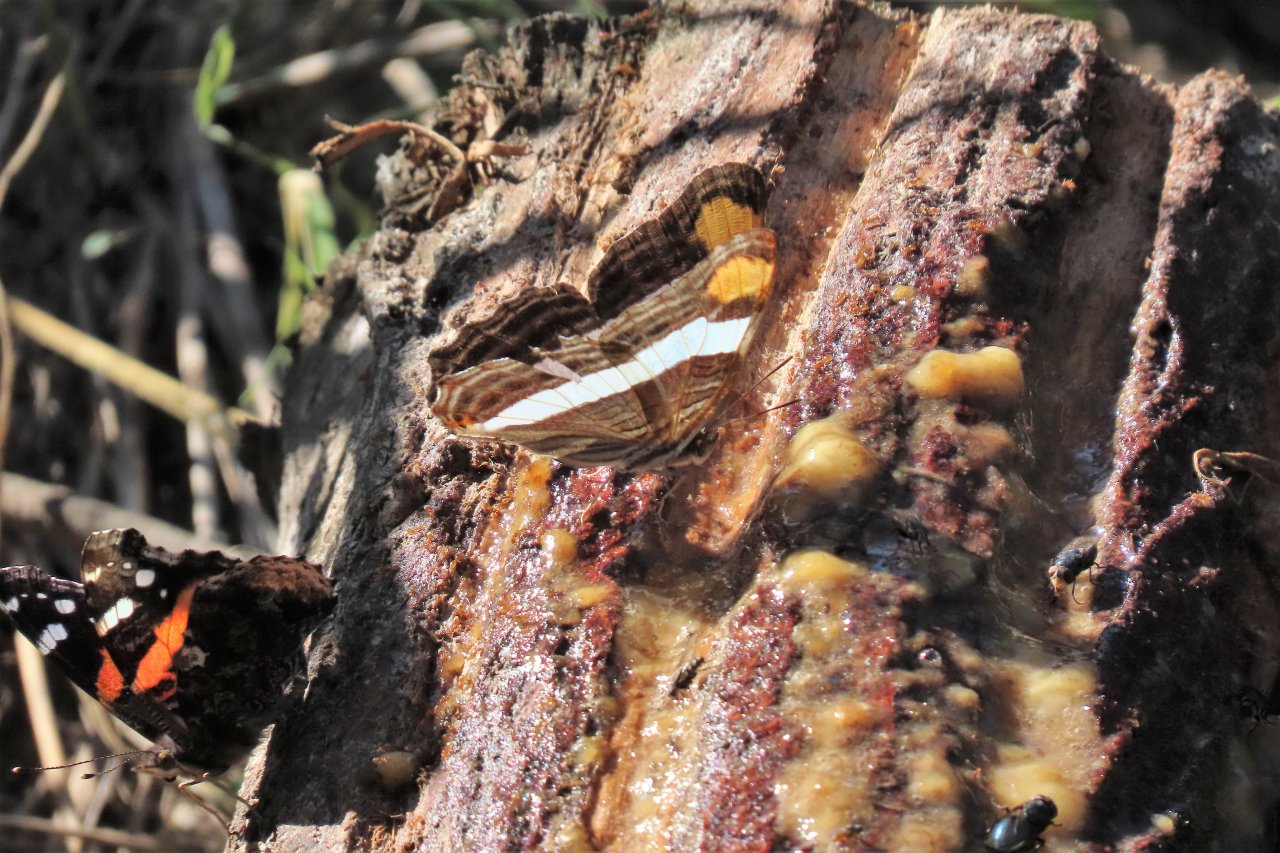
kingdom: Animalia
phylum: Arthropoda
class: Insecta
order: Lepidoptera
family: Nymphalidae
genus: Limenitis
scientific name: Limenitis fessonia
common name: Band-celled Sister
